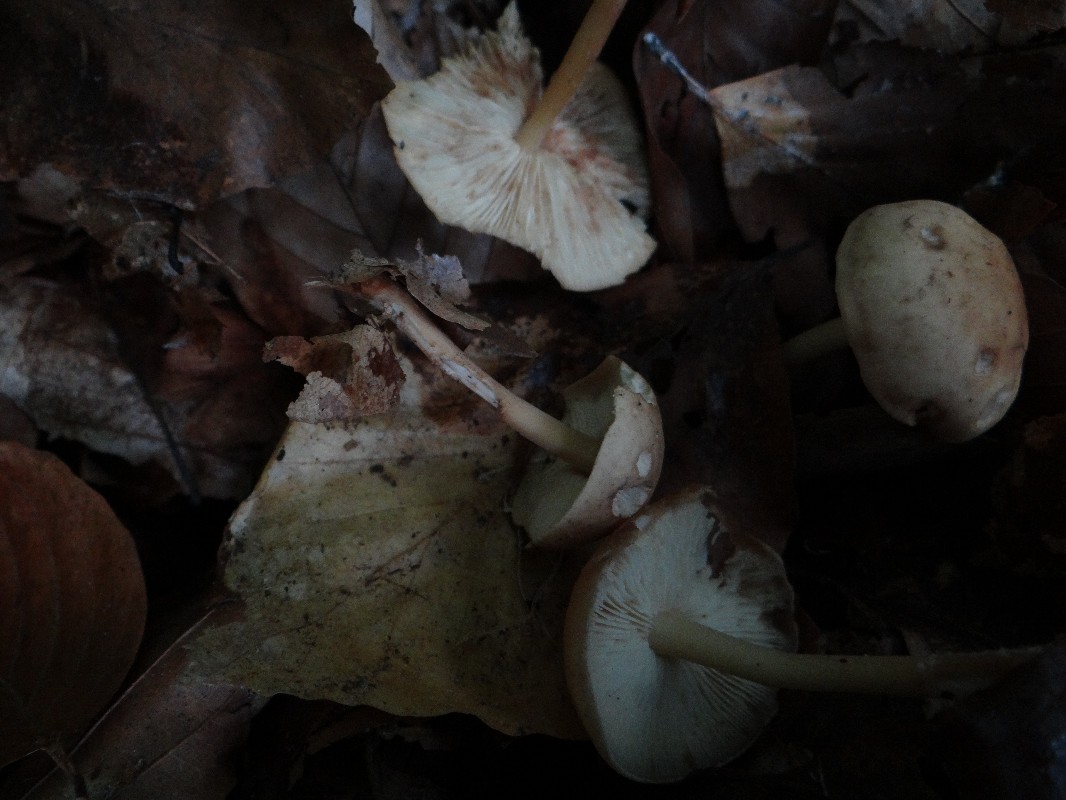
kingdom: Fungi
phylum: Basidiomycota
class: Agaricomycetes
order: Agaricales
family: Omphalotaceae
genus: Gymnopus
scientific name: Gymnopus dryophilus
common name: løv-fladhat
